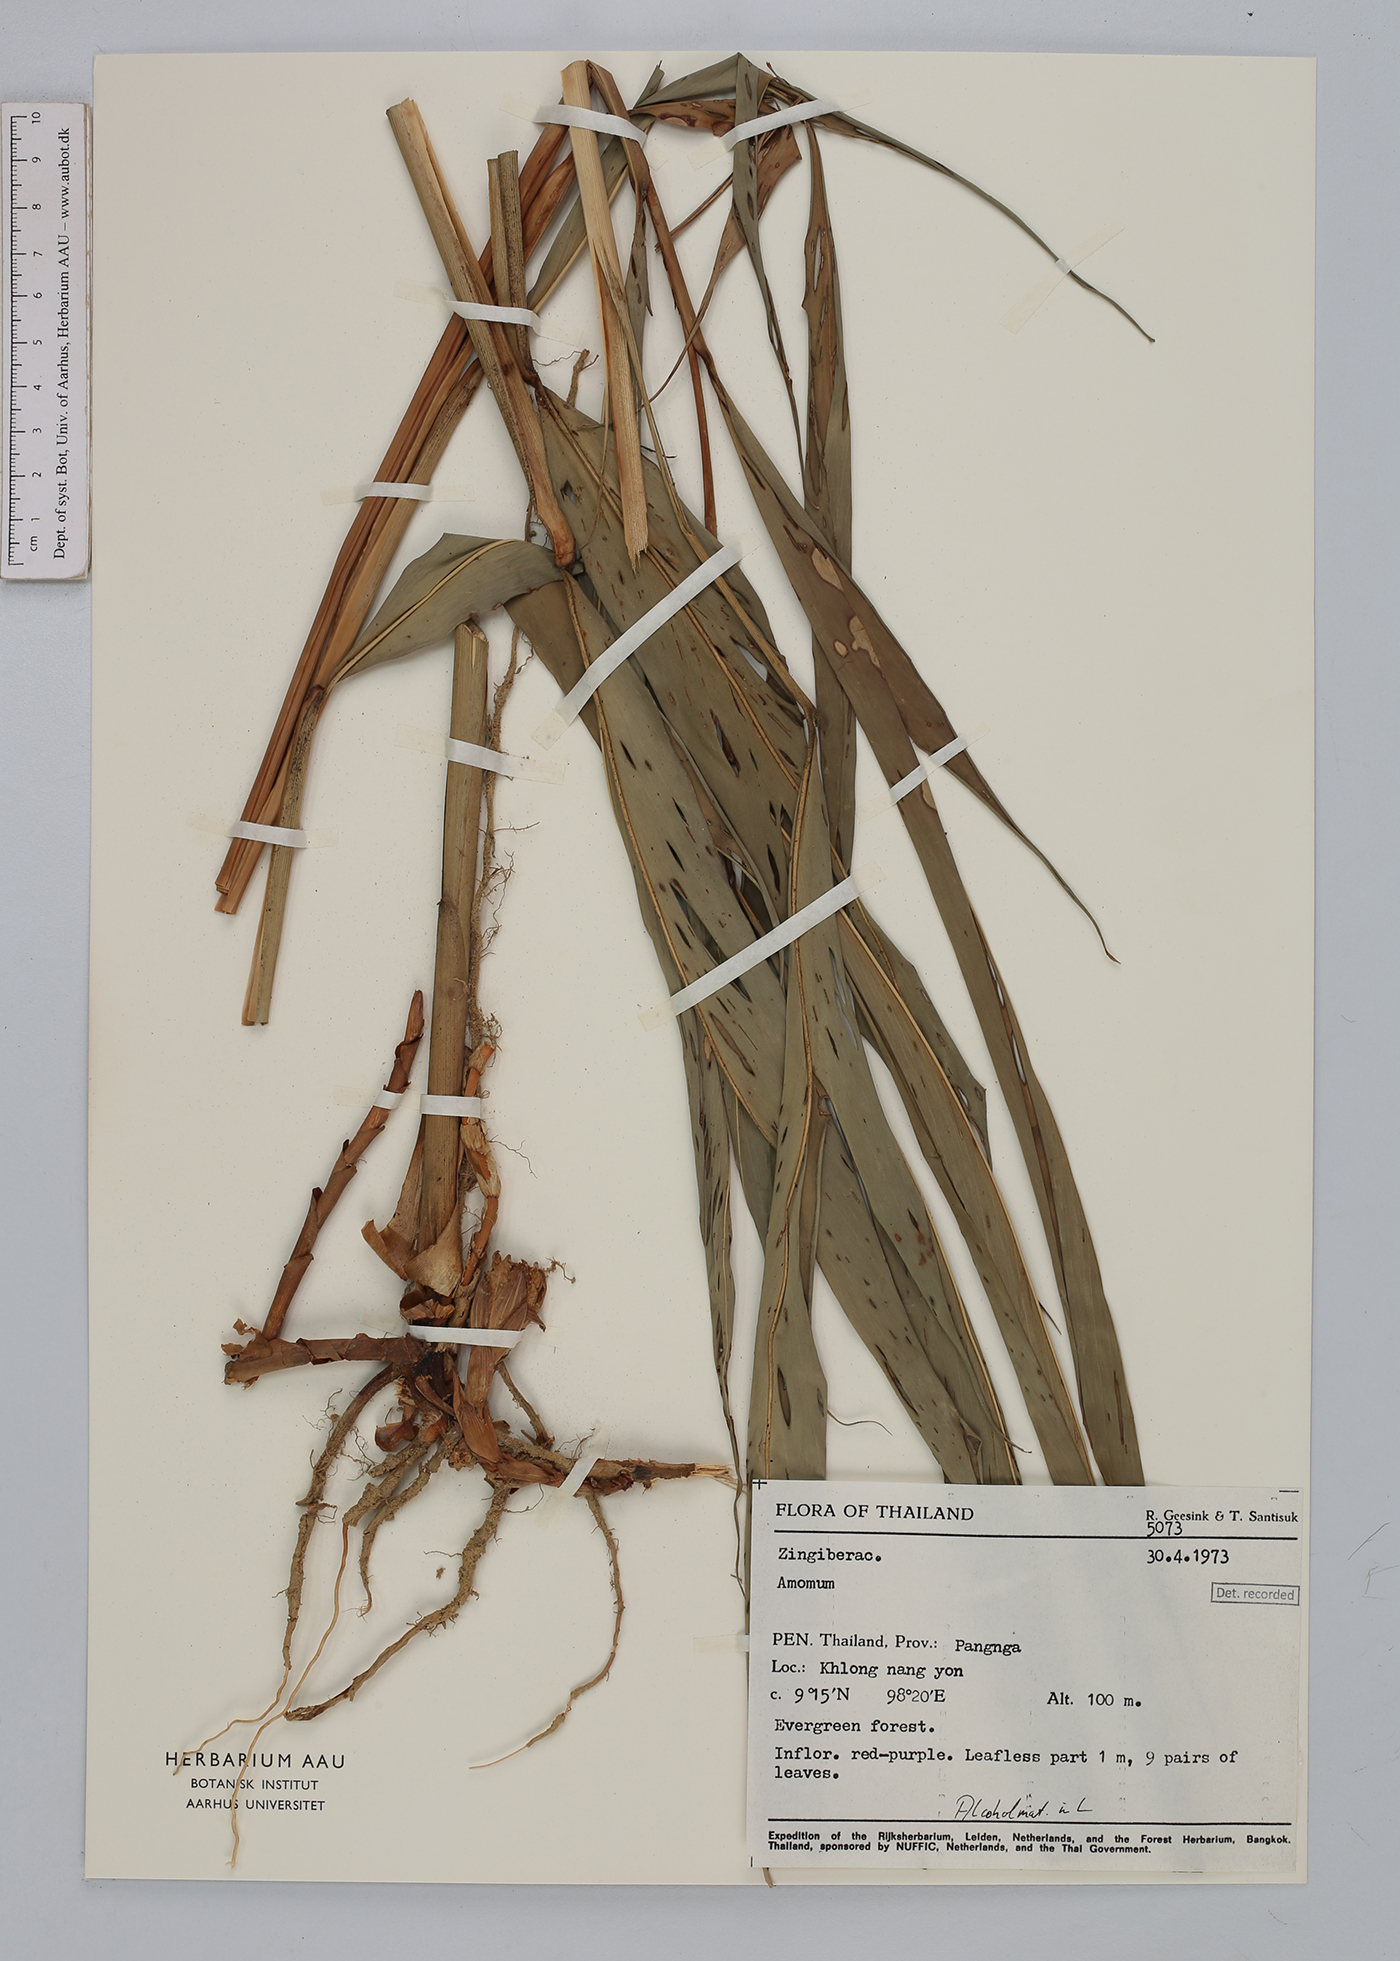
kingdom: Plantae
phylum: Tracheophyta
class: Liliopsida
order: Zingiberales
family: Zingiberaceae
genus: Amomum
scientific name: Amomum
